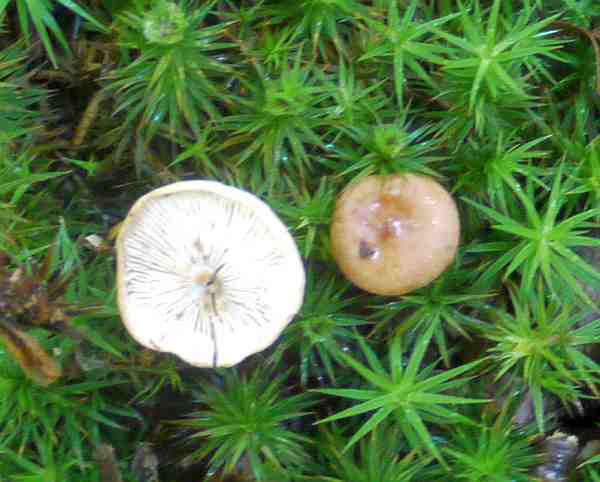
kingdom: Fungi
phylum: Basidiomycota
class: Agaricomycetes
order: Russulales
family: Russulaceae
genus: Lactarius
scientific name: Lactarius subdulcis
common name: sødlig mælkehat
